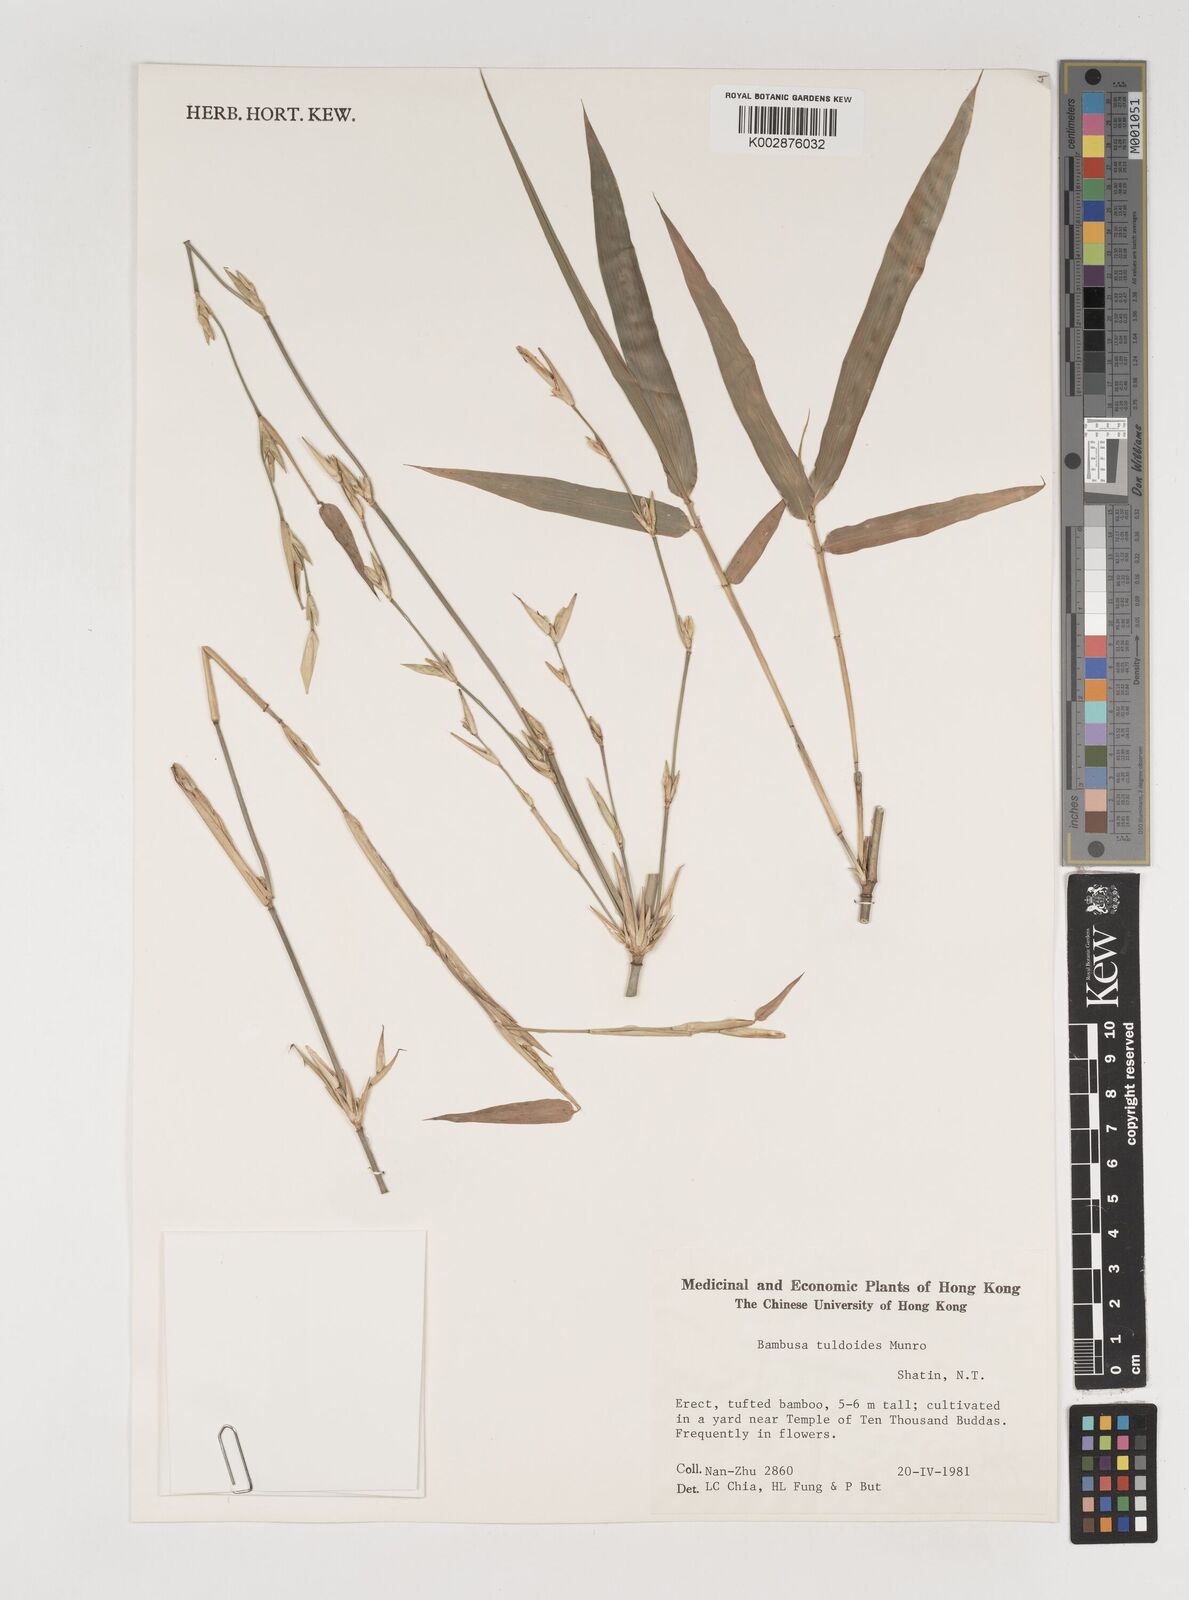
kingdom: Plantae
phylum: Tracheophyta
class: Liliopsida
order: Poales
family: Poaceae
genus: Bambusa
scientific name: Bambusa tuldoides
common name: Verdant bamboo
